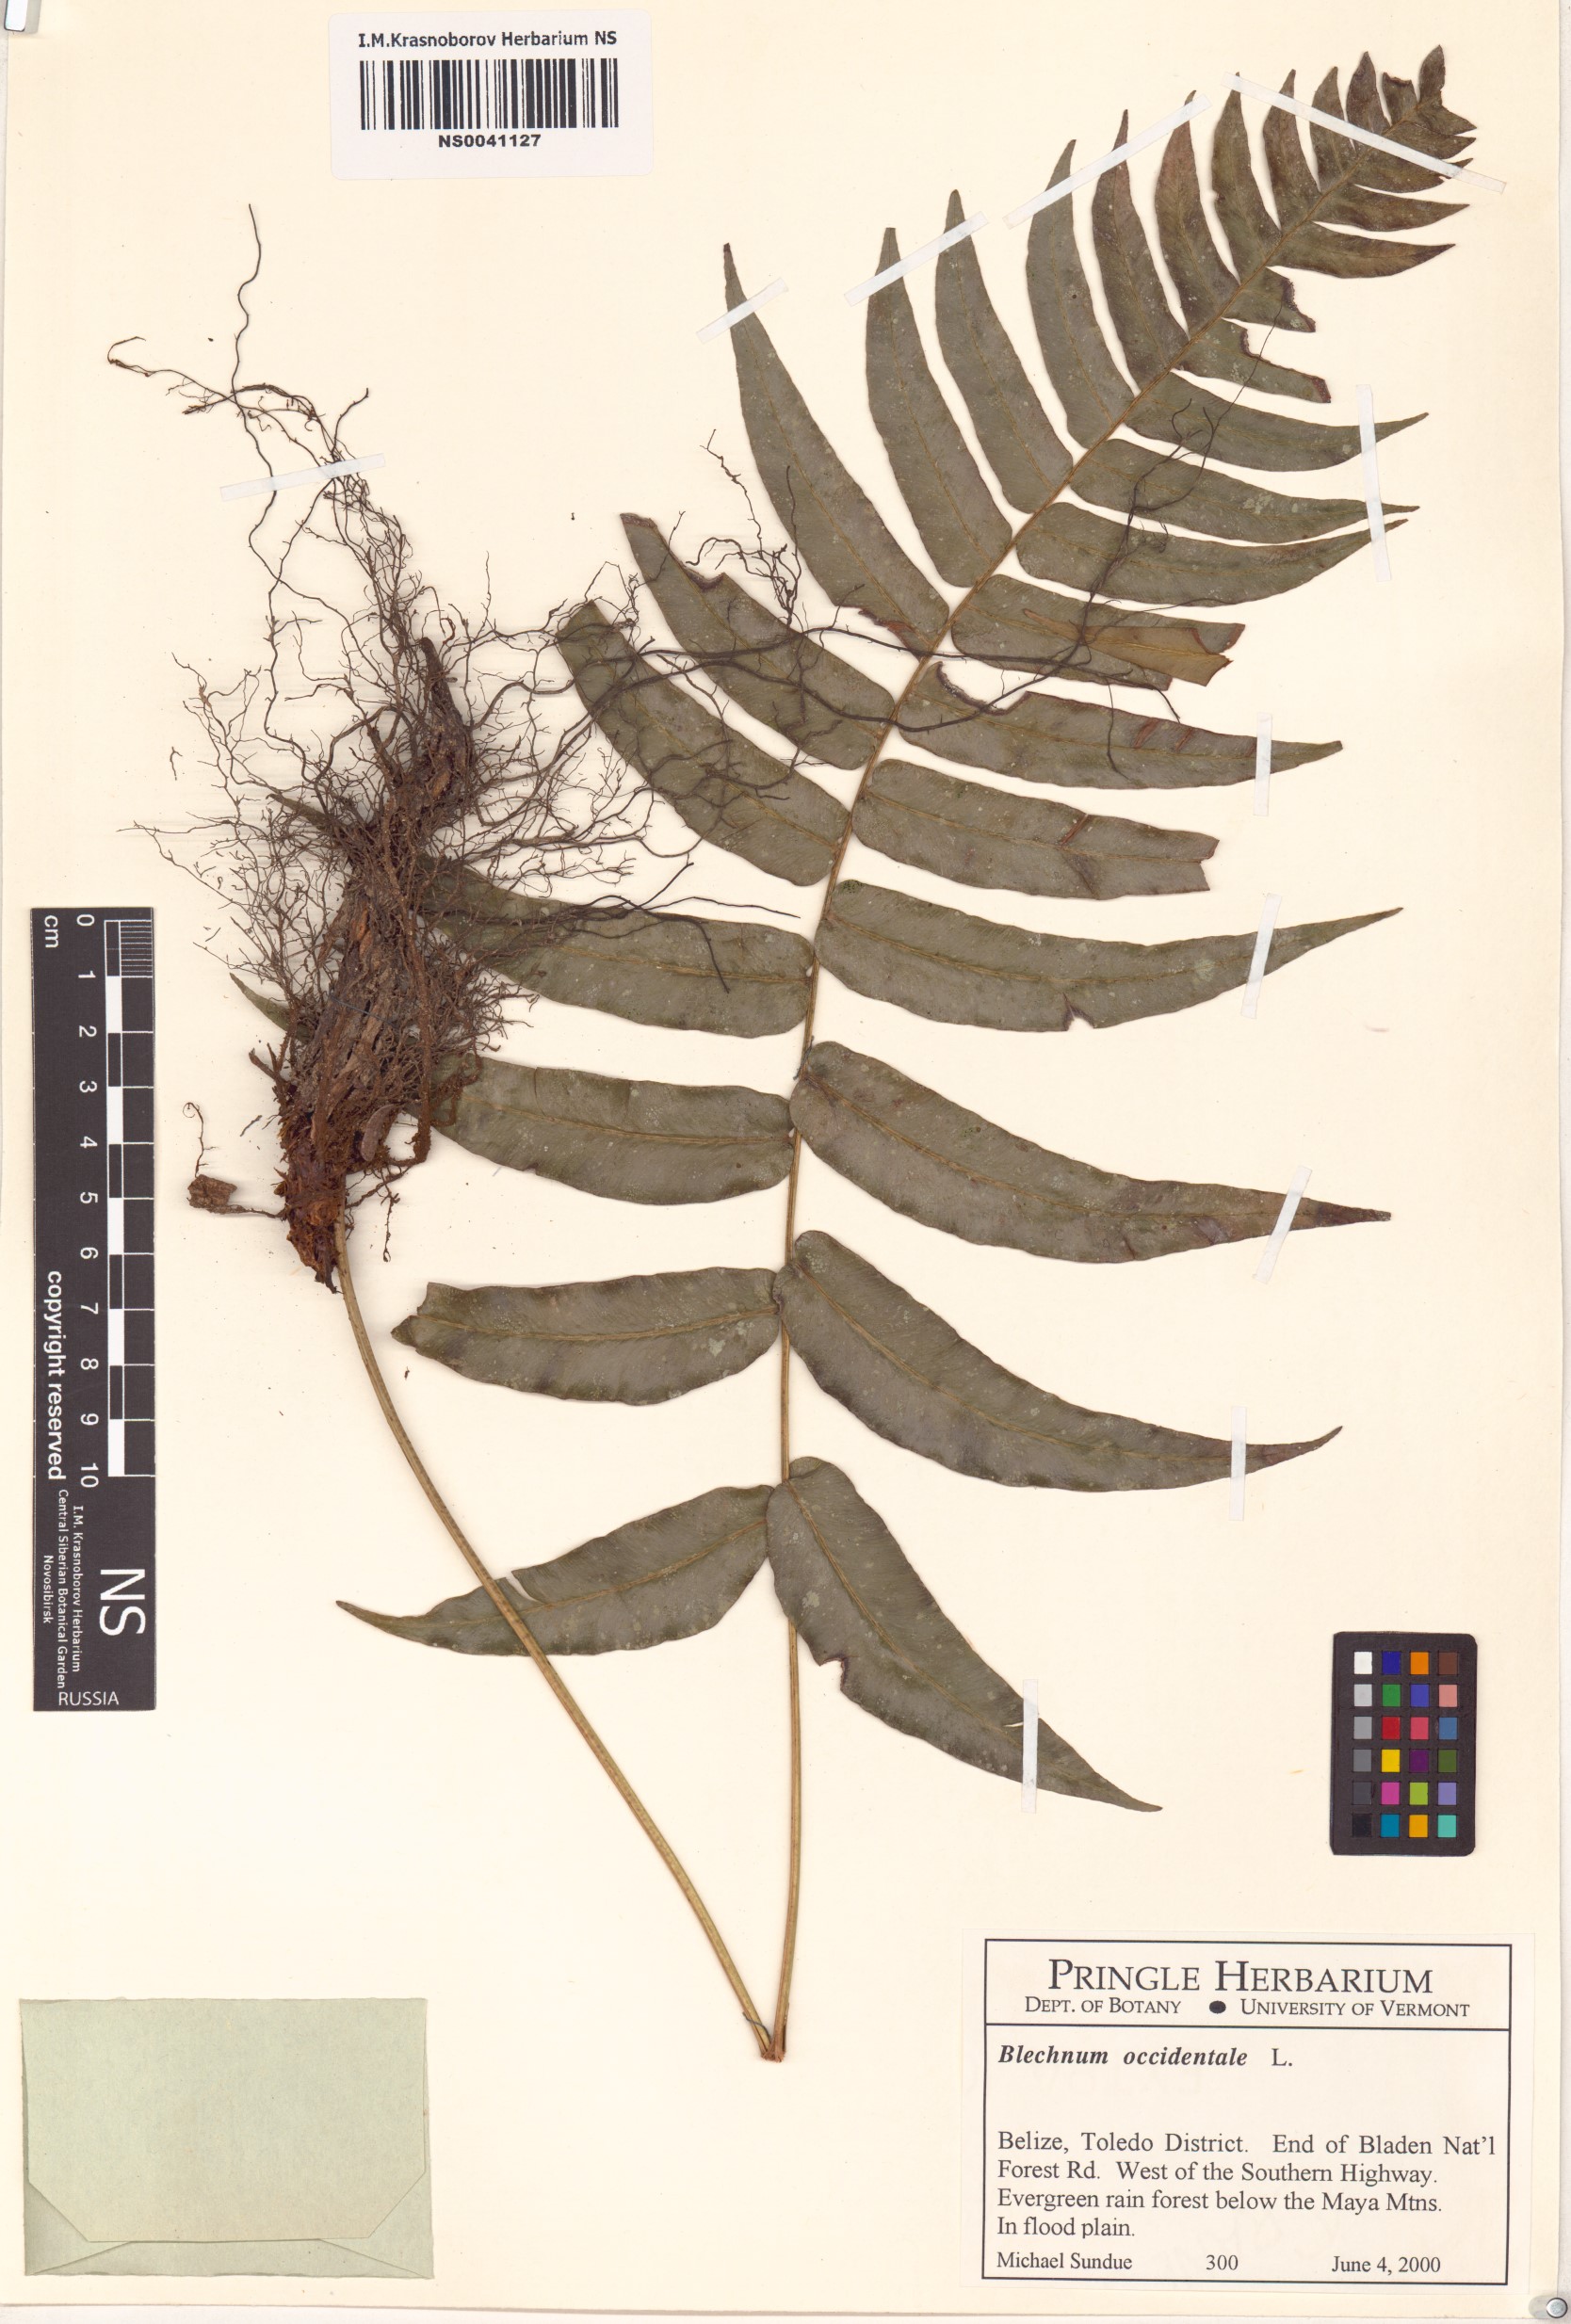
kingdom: Plantae
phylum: Tracheophyta
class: Polypodiopsida
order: Polypodiales
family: Blechnaceae
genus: Blechnum
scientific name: Blechnum occidentale
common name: Hammock fern
